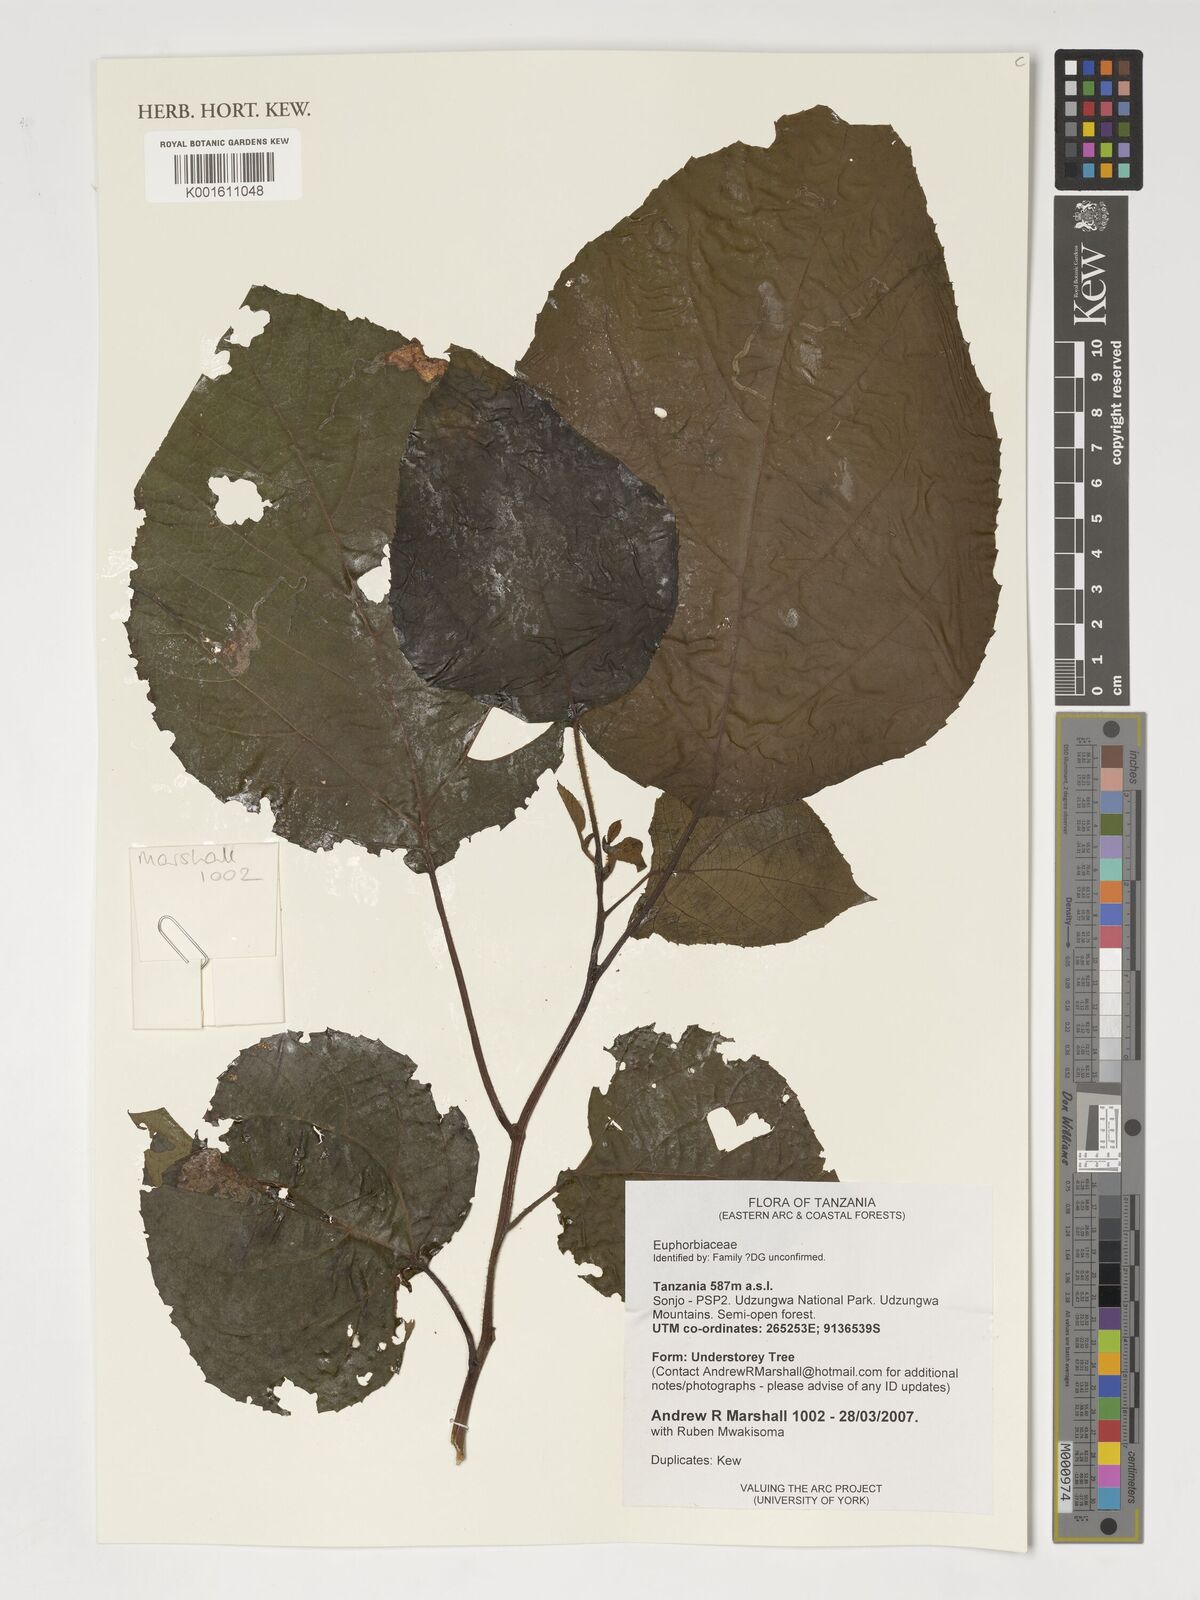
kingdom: Plantae
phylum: Tracheophyta
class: Magnoliopsida
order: Malpighiales
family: Euphorbiaceae
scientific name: Euphorbiaceae
